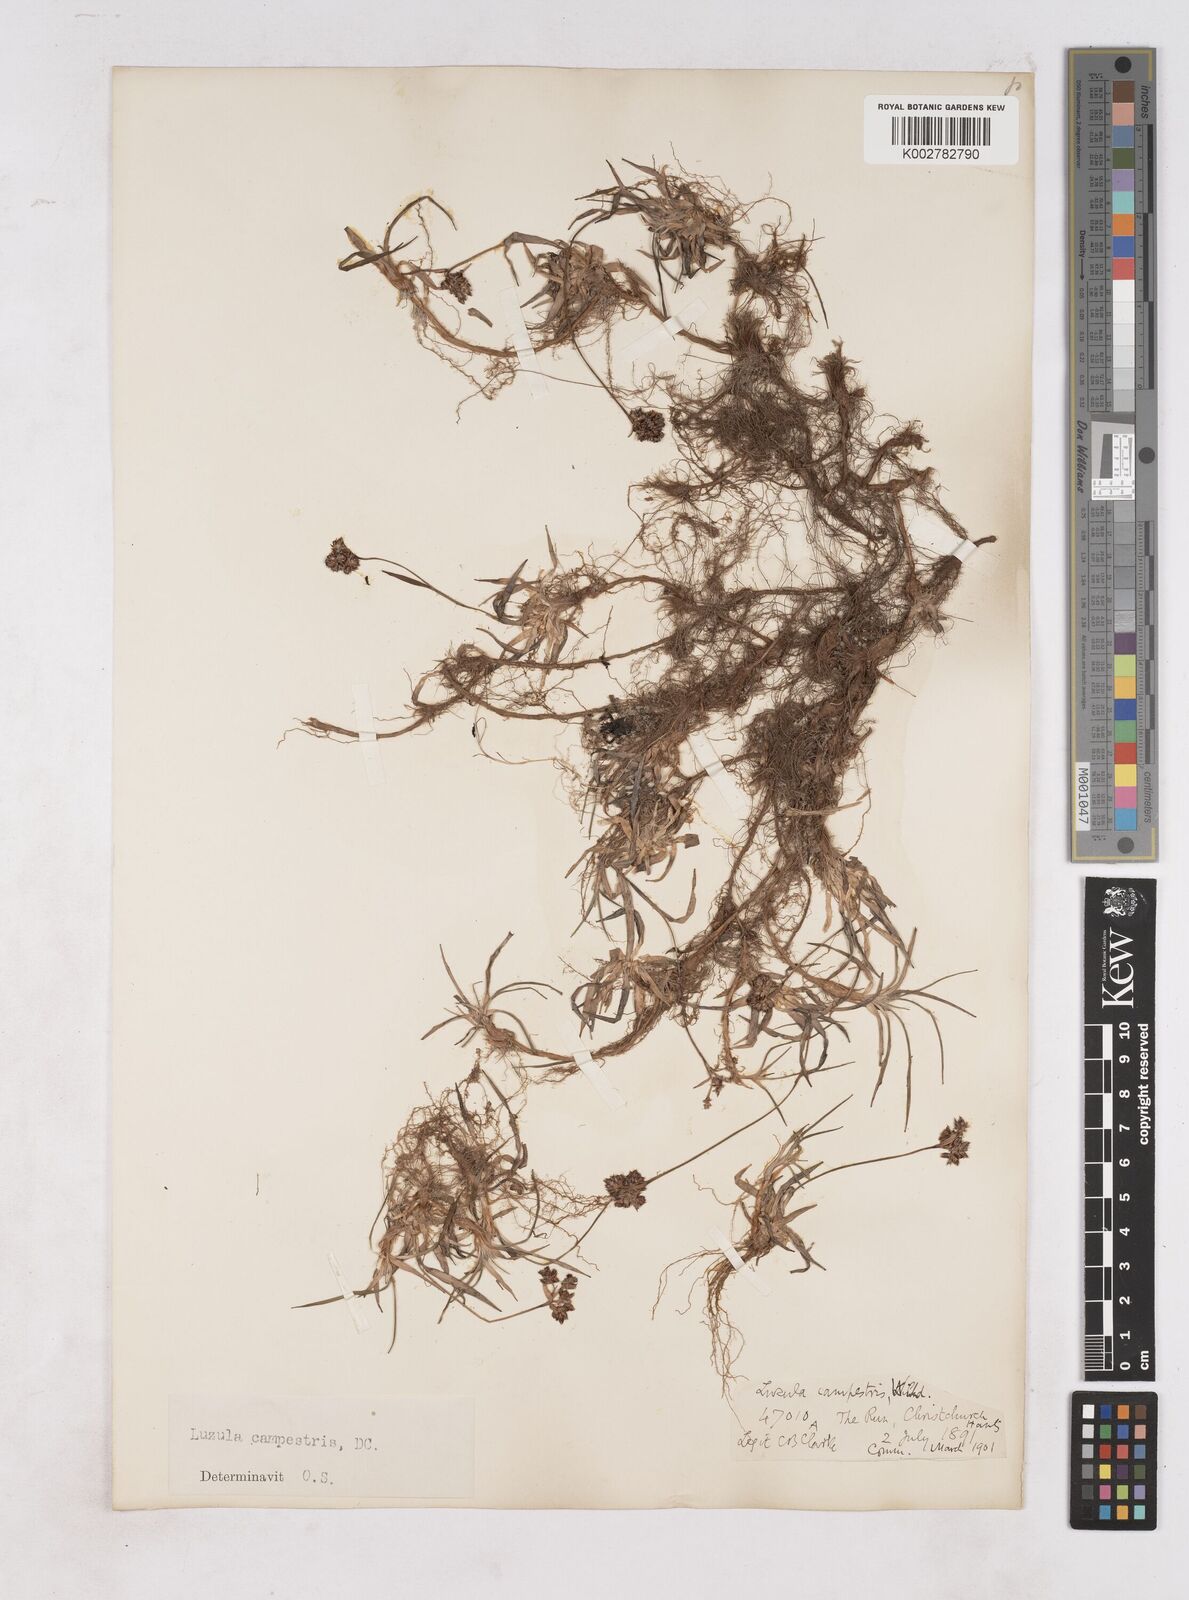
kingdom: Plantae
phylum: Tracheophyta
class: Liliopsida
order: Poales
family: Juncaceae
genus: Luzula
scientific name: Luzula campestris
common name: Field wood-rush
